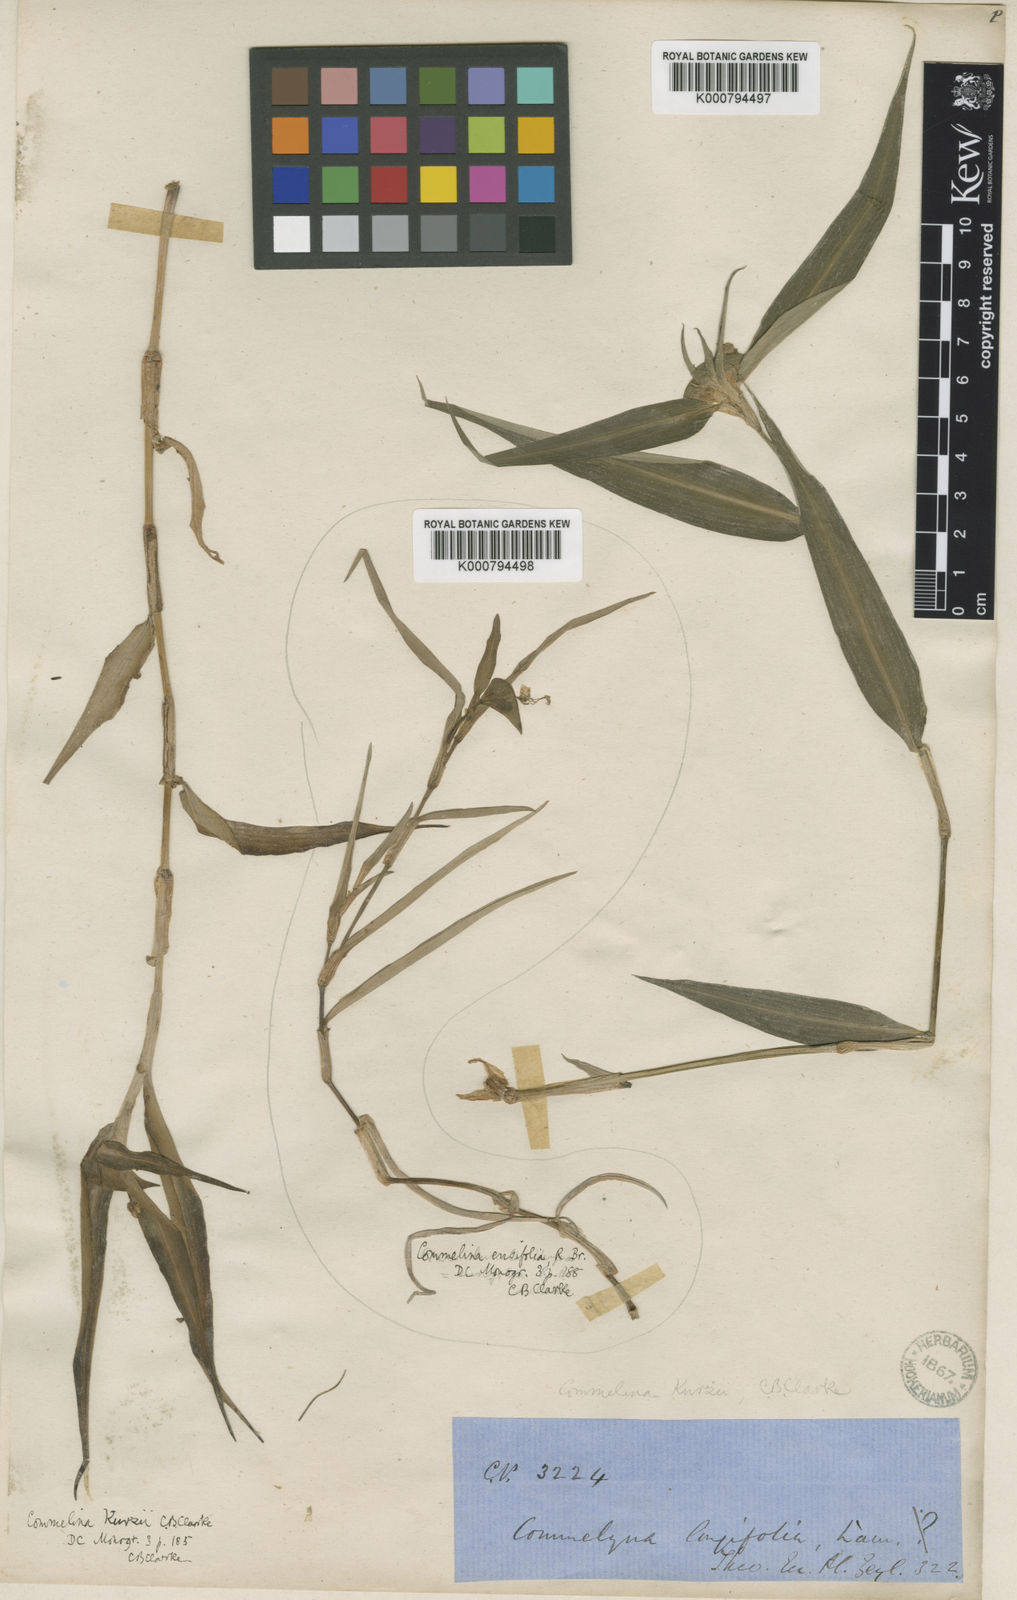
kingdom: Plantae
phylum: Tracheophyta
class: Liliopsida
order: Commelinales
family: Commelinaceae
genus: Commelina
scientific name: Commelina undulata
